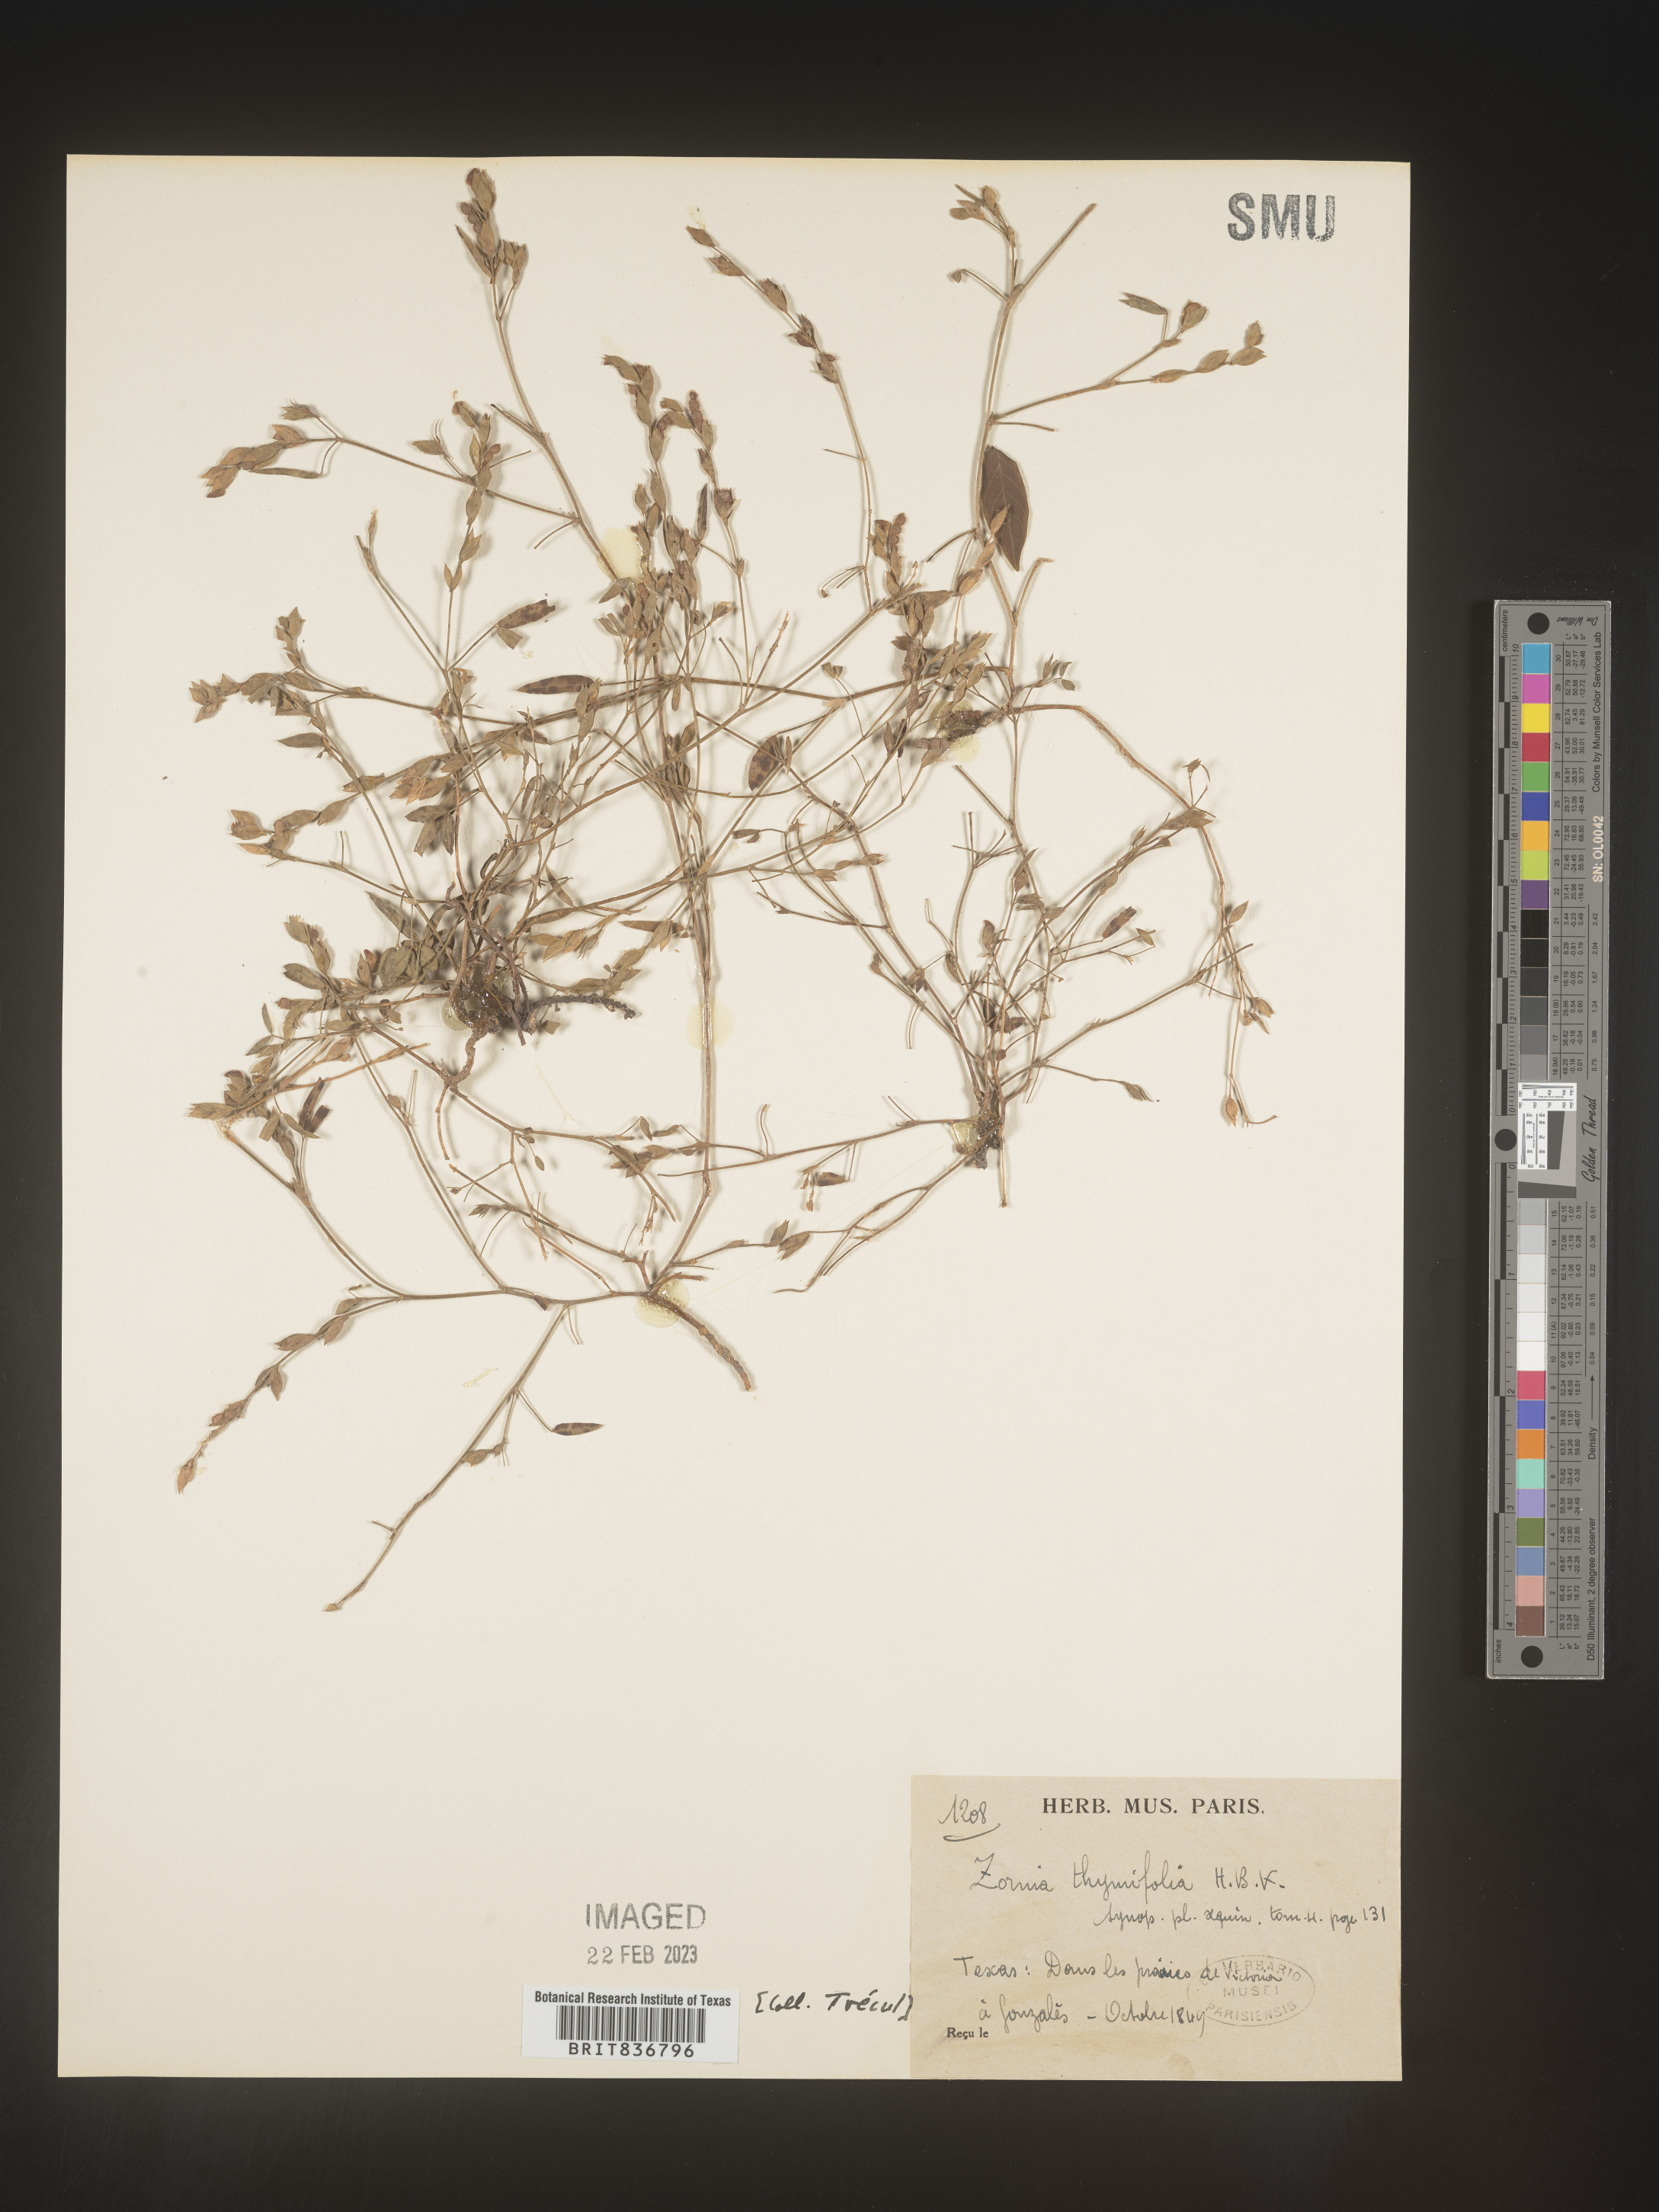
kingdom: Plantae
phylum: Tracheophyta
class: Magnoliopsida
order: Fabales
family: Fabaceae
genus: Zornia
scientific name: Zornia
